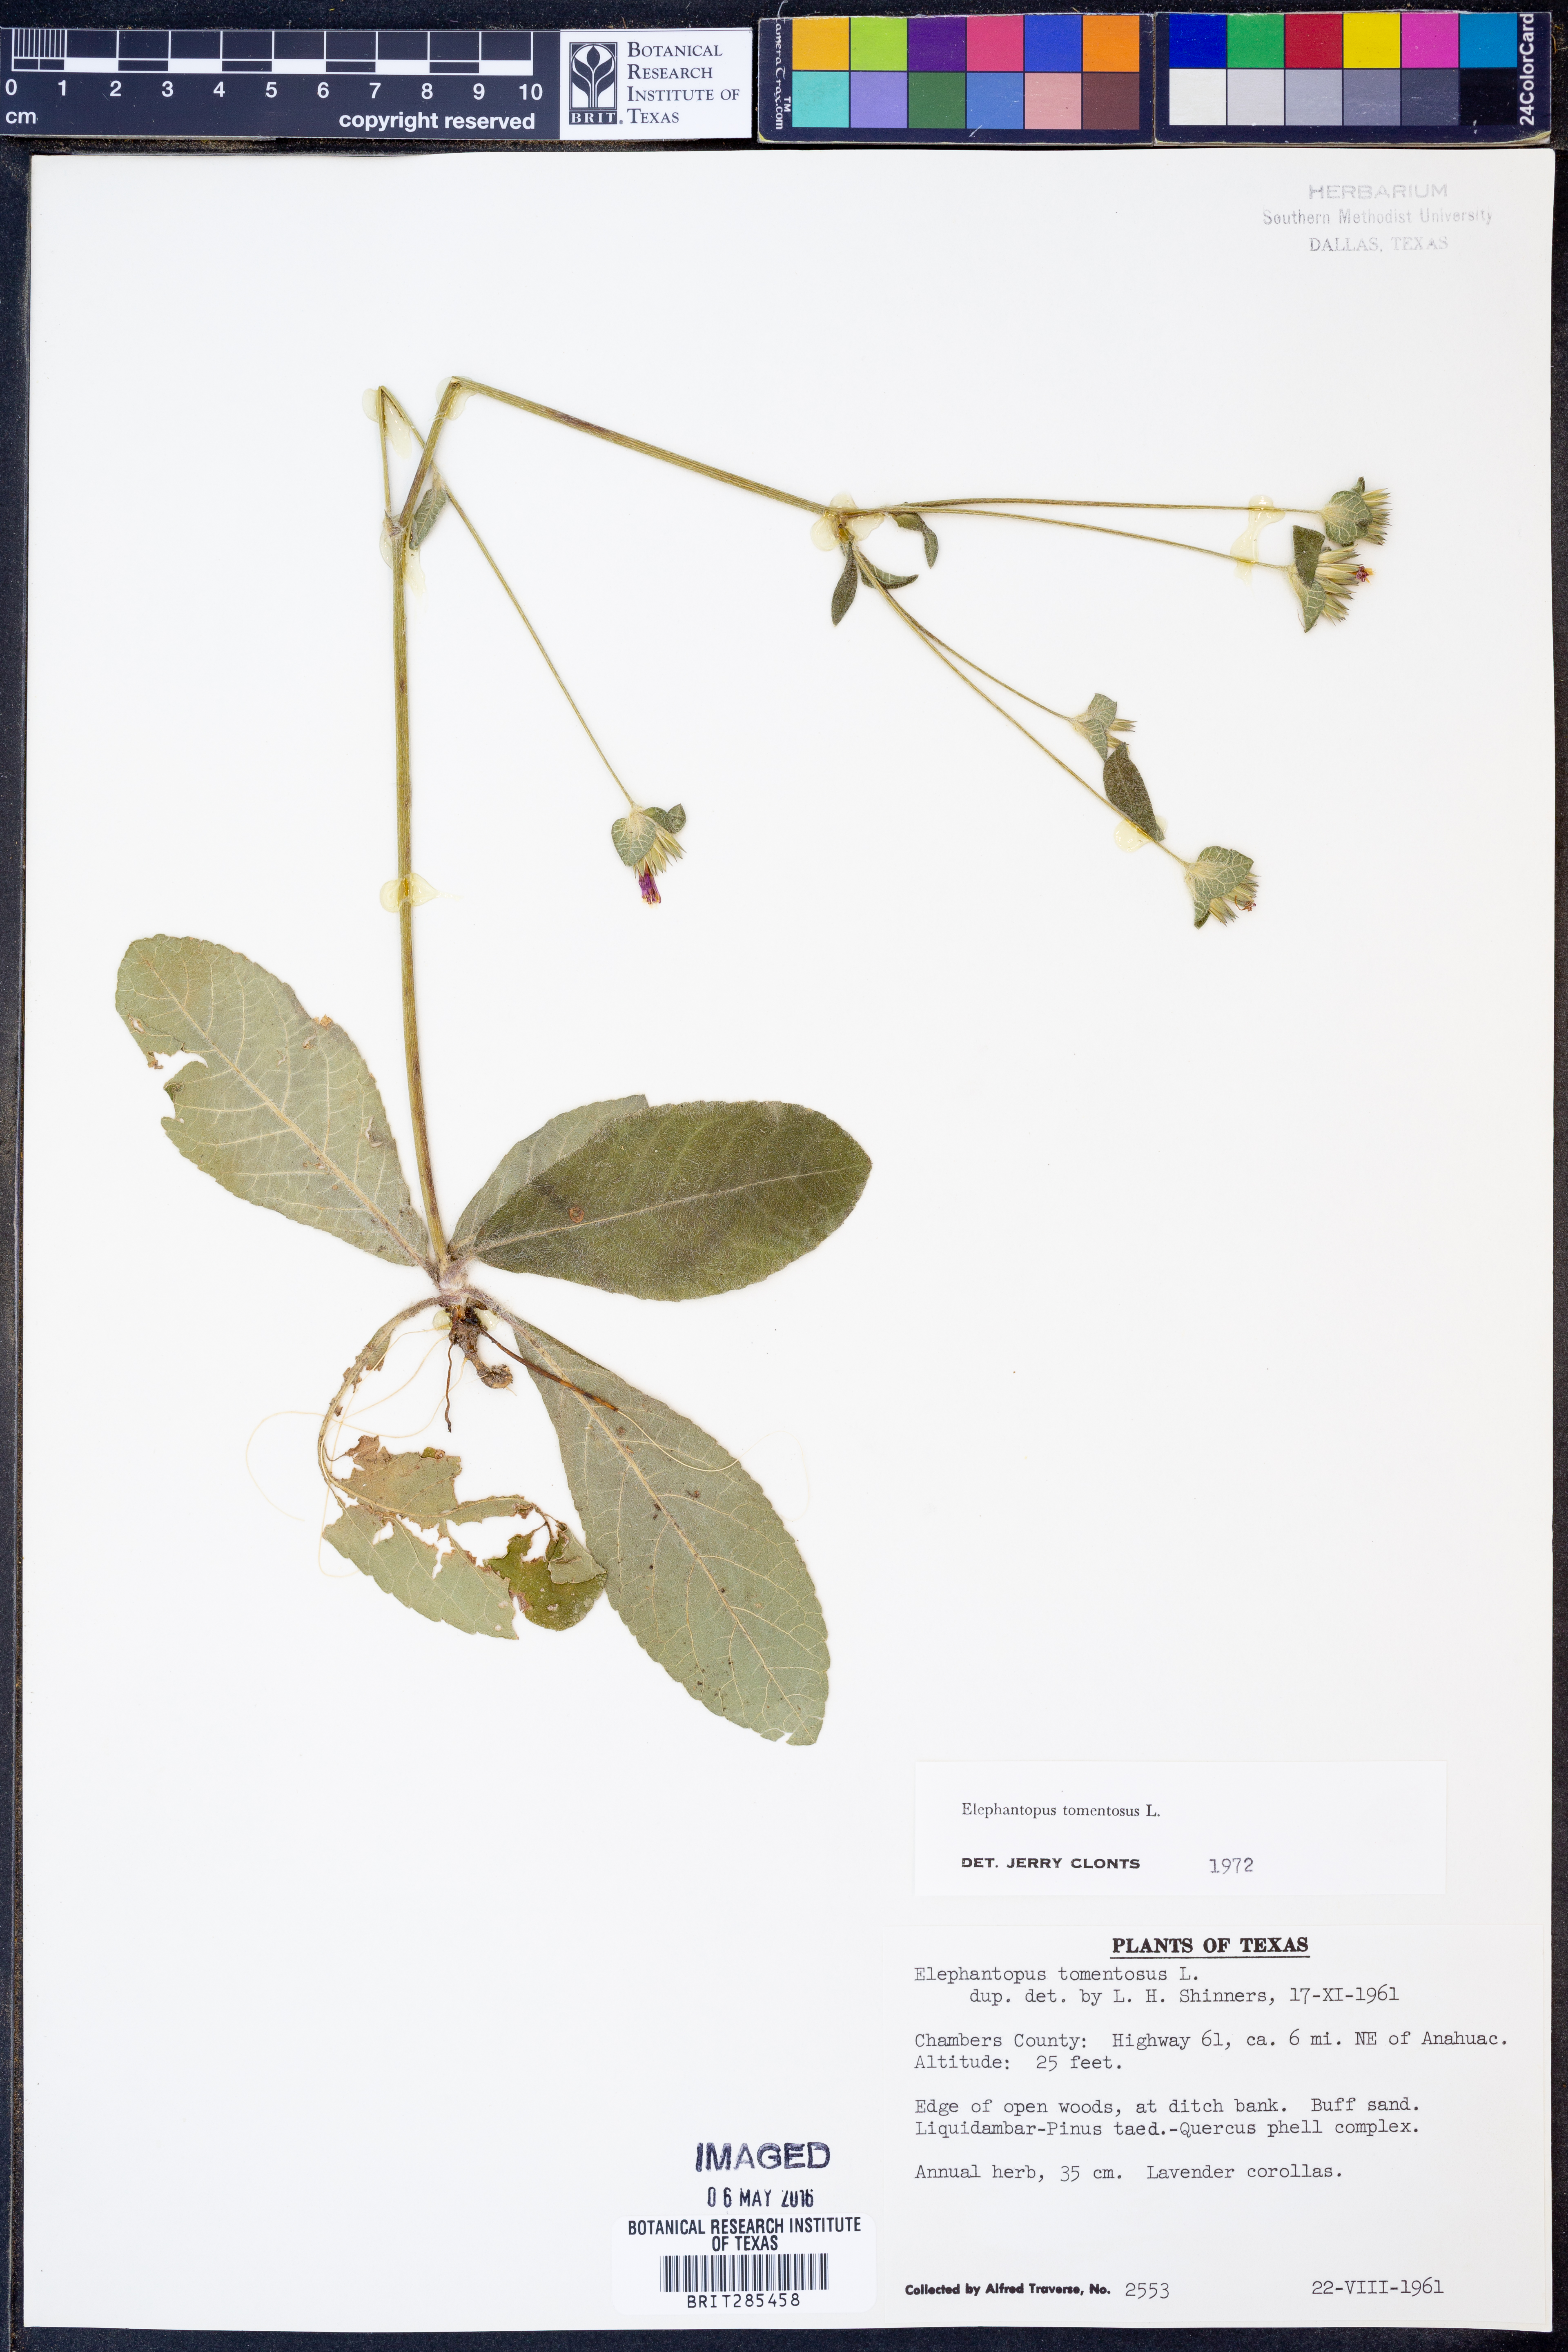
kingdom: Plantae
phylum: Tracheophyta
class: Magnoliopsida
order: Asterales
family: Asteraceae
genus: Elephantopus
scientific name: Elephantopus tomentosus
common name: Tobacco-weed
